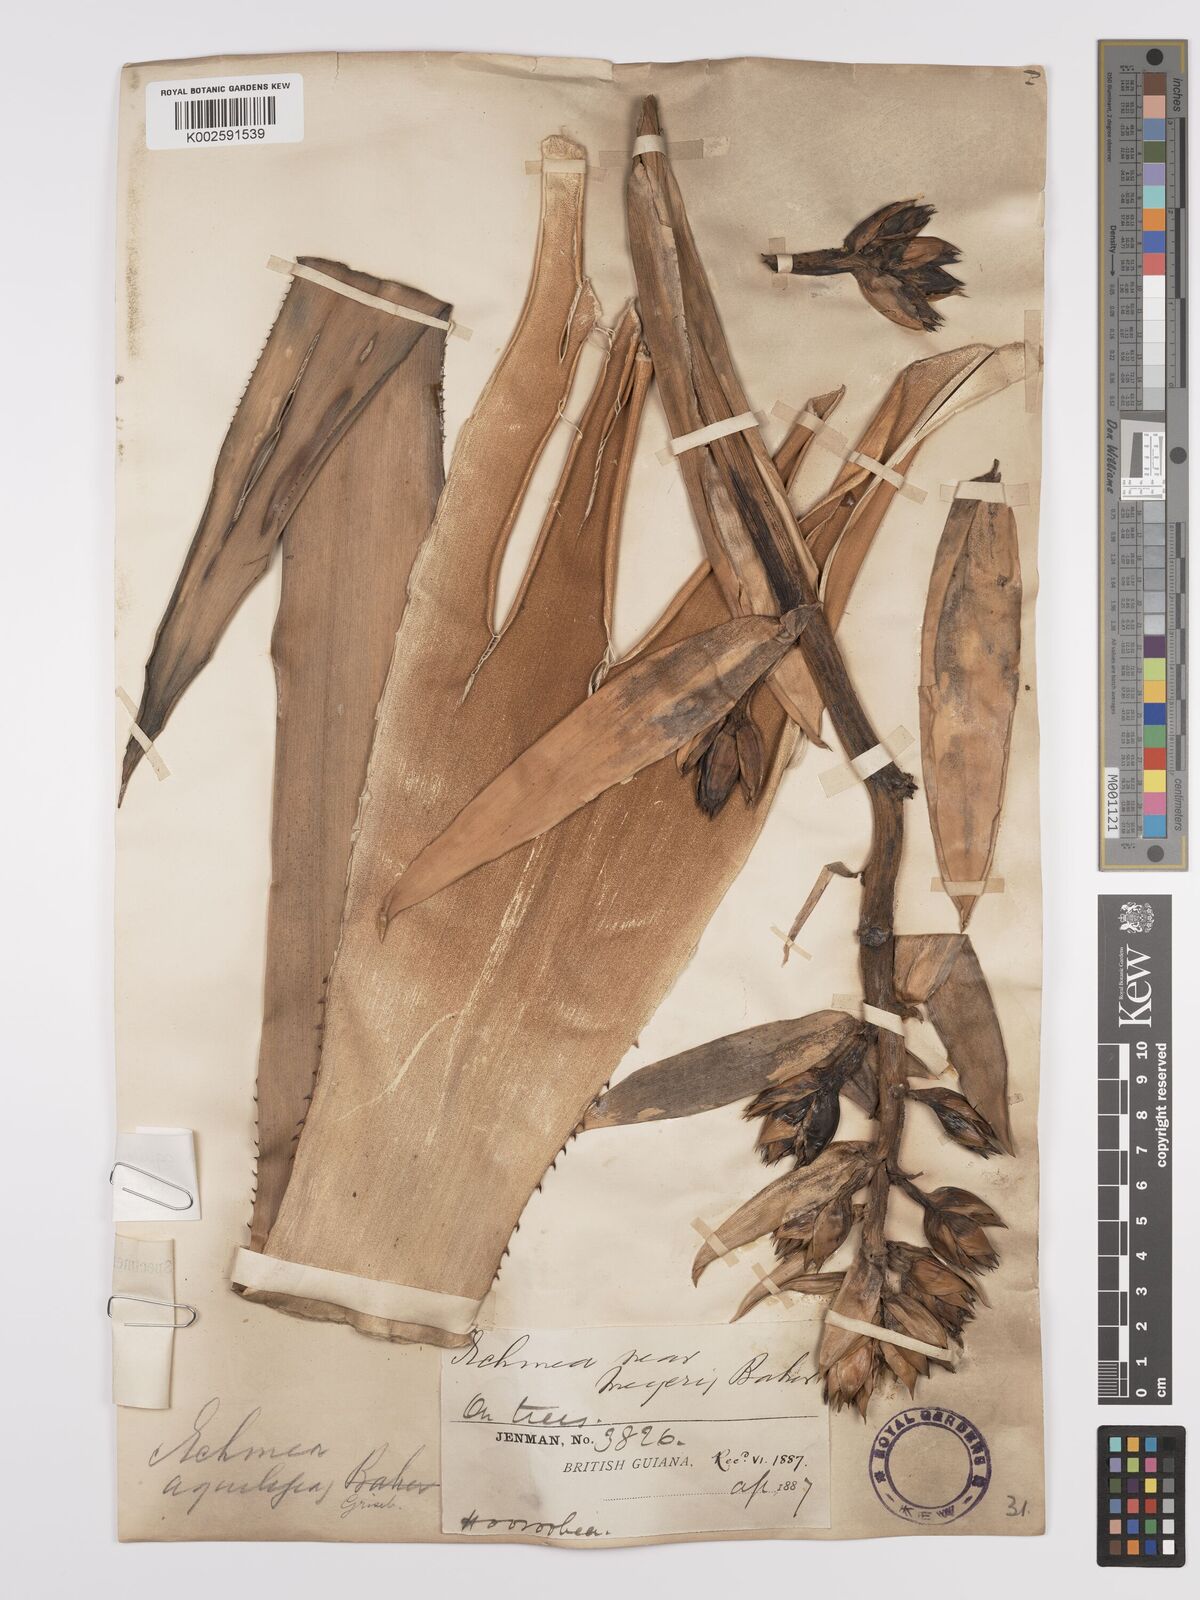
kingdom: Plantae
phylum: Tracheophyta
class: Liliopsida
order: Poales
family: Bromeliaceae
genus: Aechmea
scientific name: Aechmea aquilega
